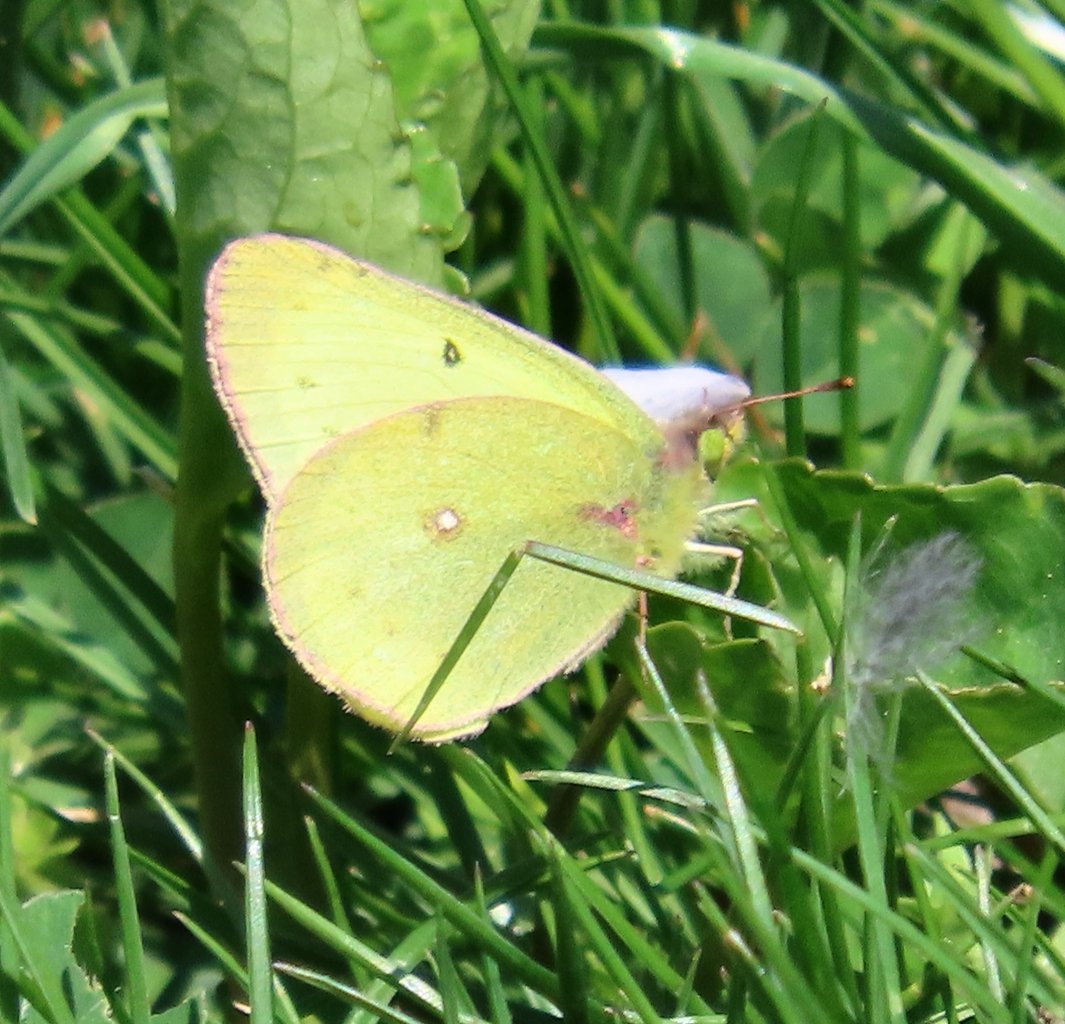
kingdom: Animalia
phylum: Arthropoda
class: Insecta
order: Lepidoptera
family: Pieridae
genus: Colias
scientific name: Colias philodice
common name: Clouded Sulphur
